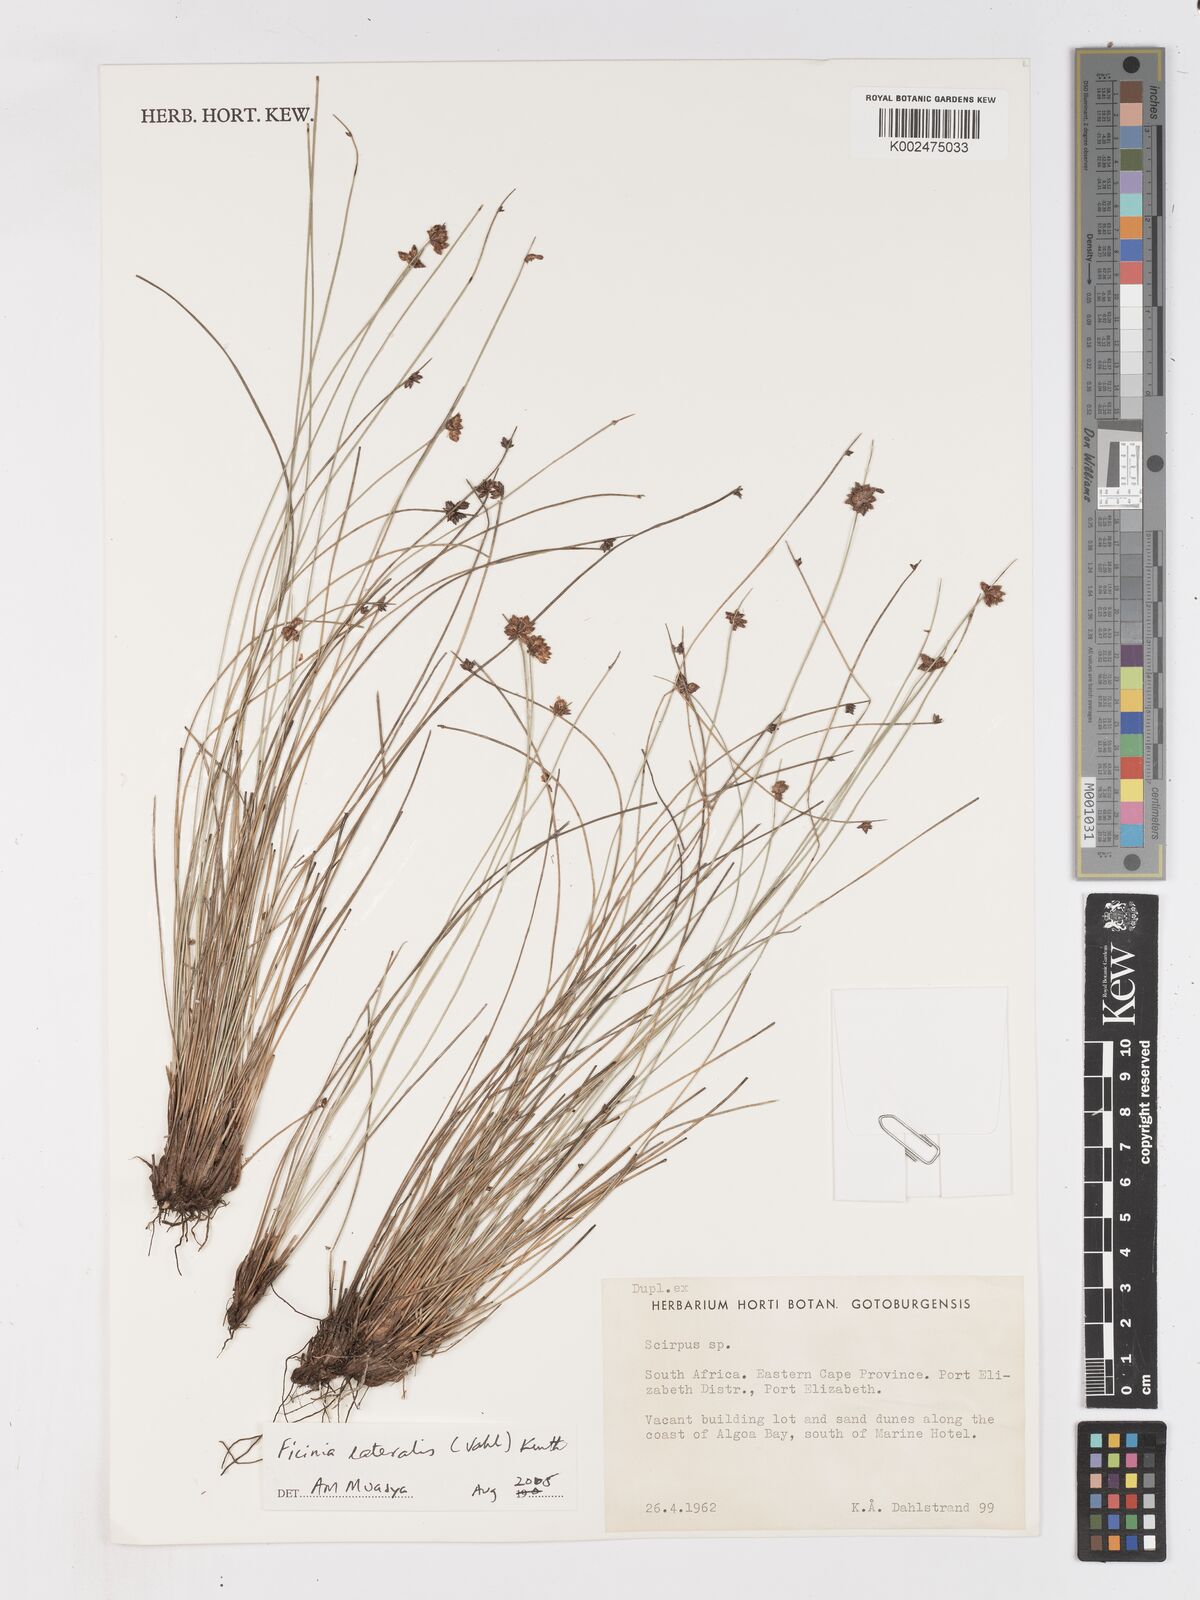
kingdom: Plantae
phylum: Tracheophyta
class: Liliopsida
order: Poales
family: Cyperaceae
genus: Ficinia
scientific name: Ficinia lateralis
